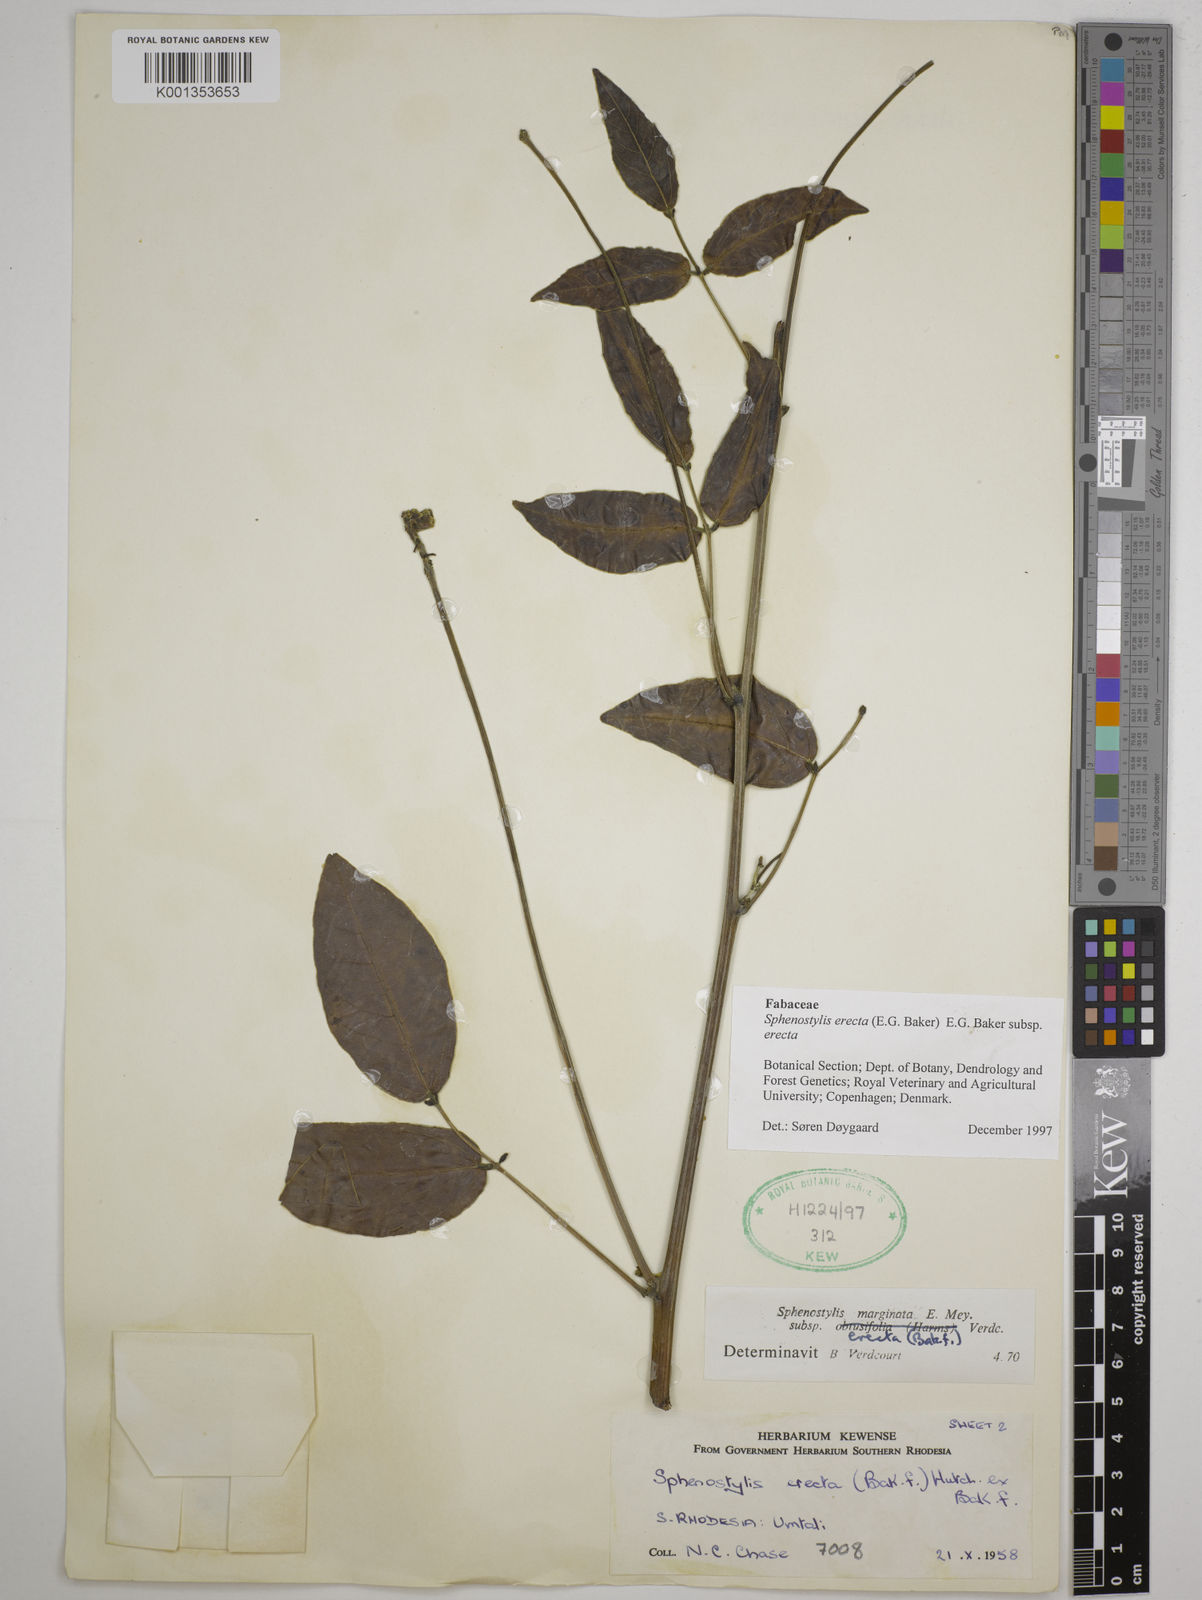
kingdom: Plantae
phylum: Tracheophyta
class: Magnoliopsida
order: Fabales
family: Fabaceae
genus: Sphenostylis
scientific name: Sphenostylis erecta
